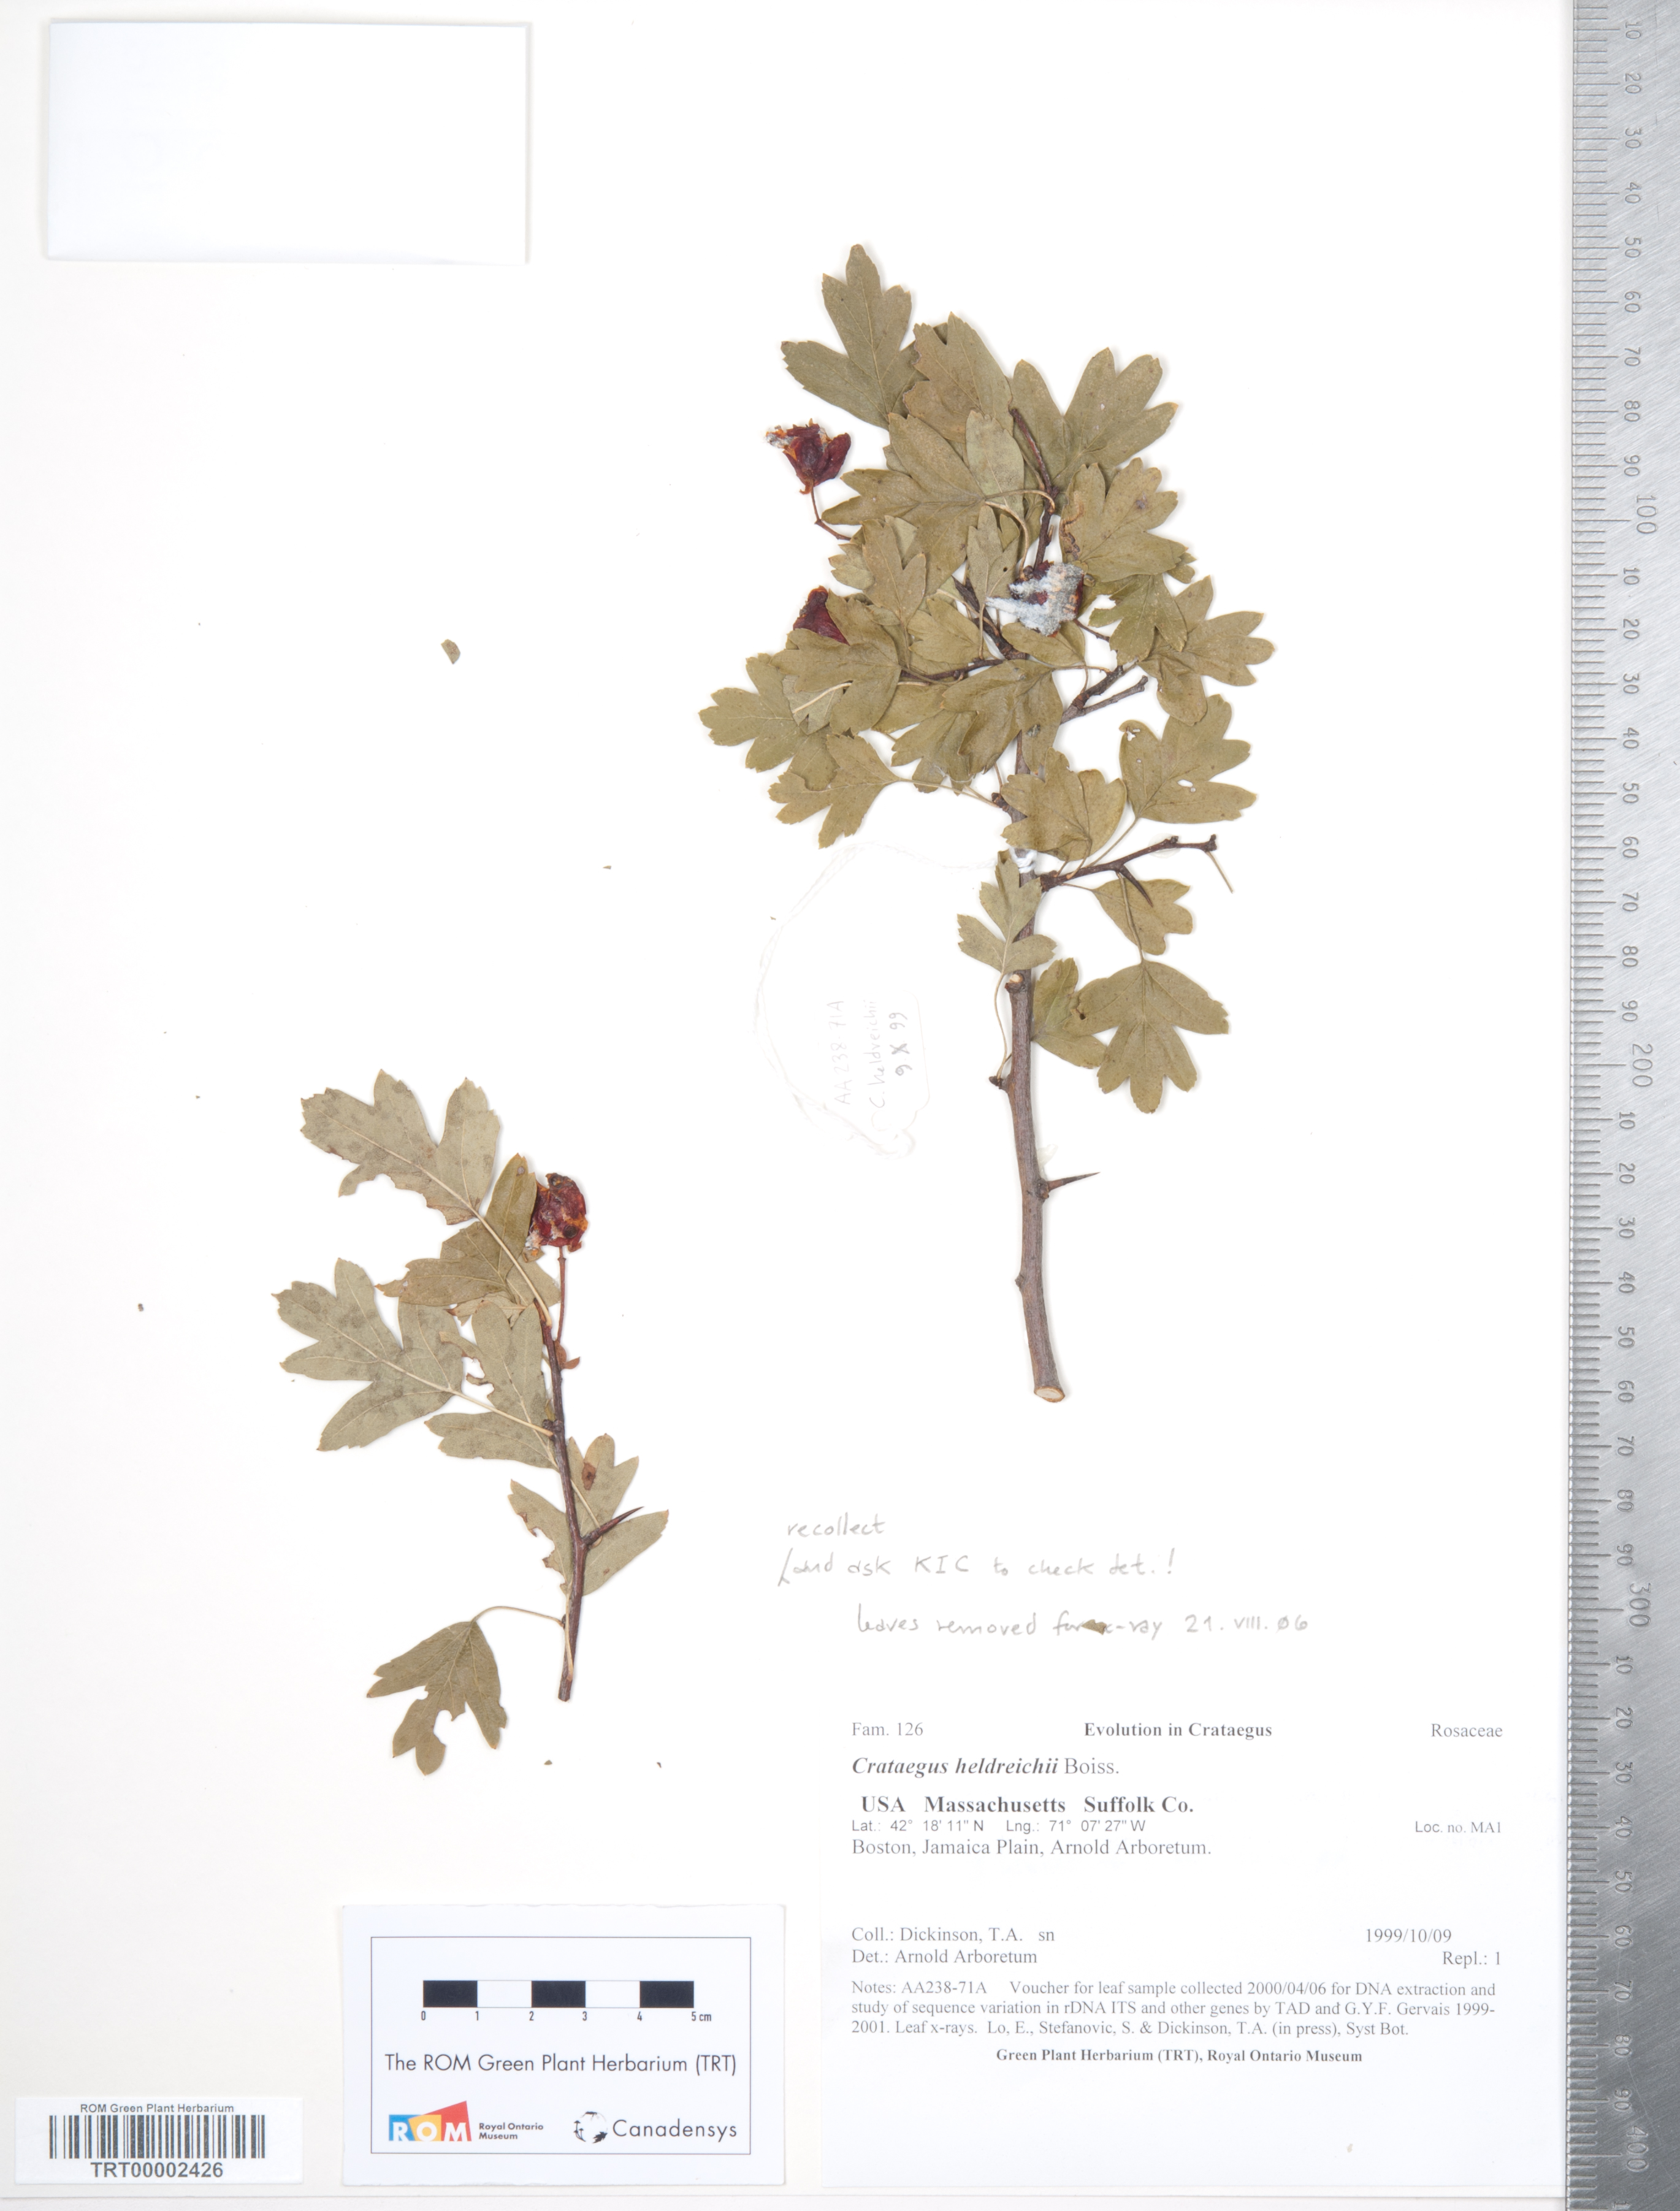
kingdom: Plantae
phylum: Tracheophyta
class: Magnoliopsida
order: Rosales
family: Rosaceae
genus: Crataegus
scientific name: Crataegus heldreichii
